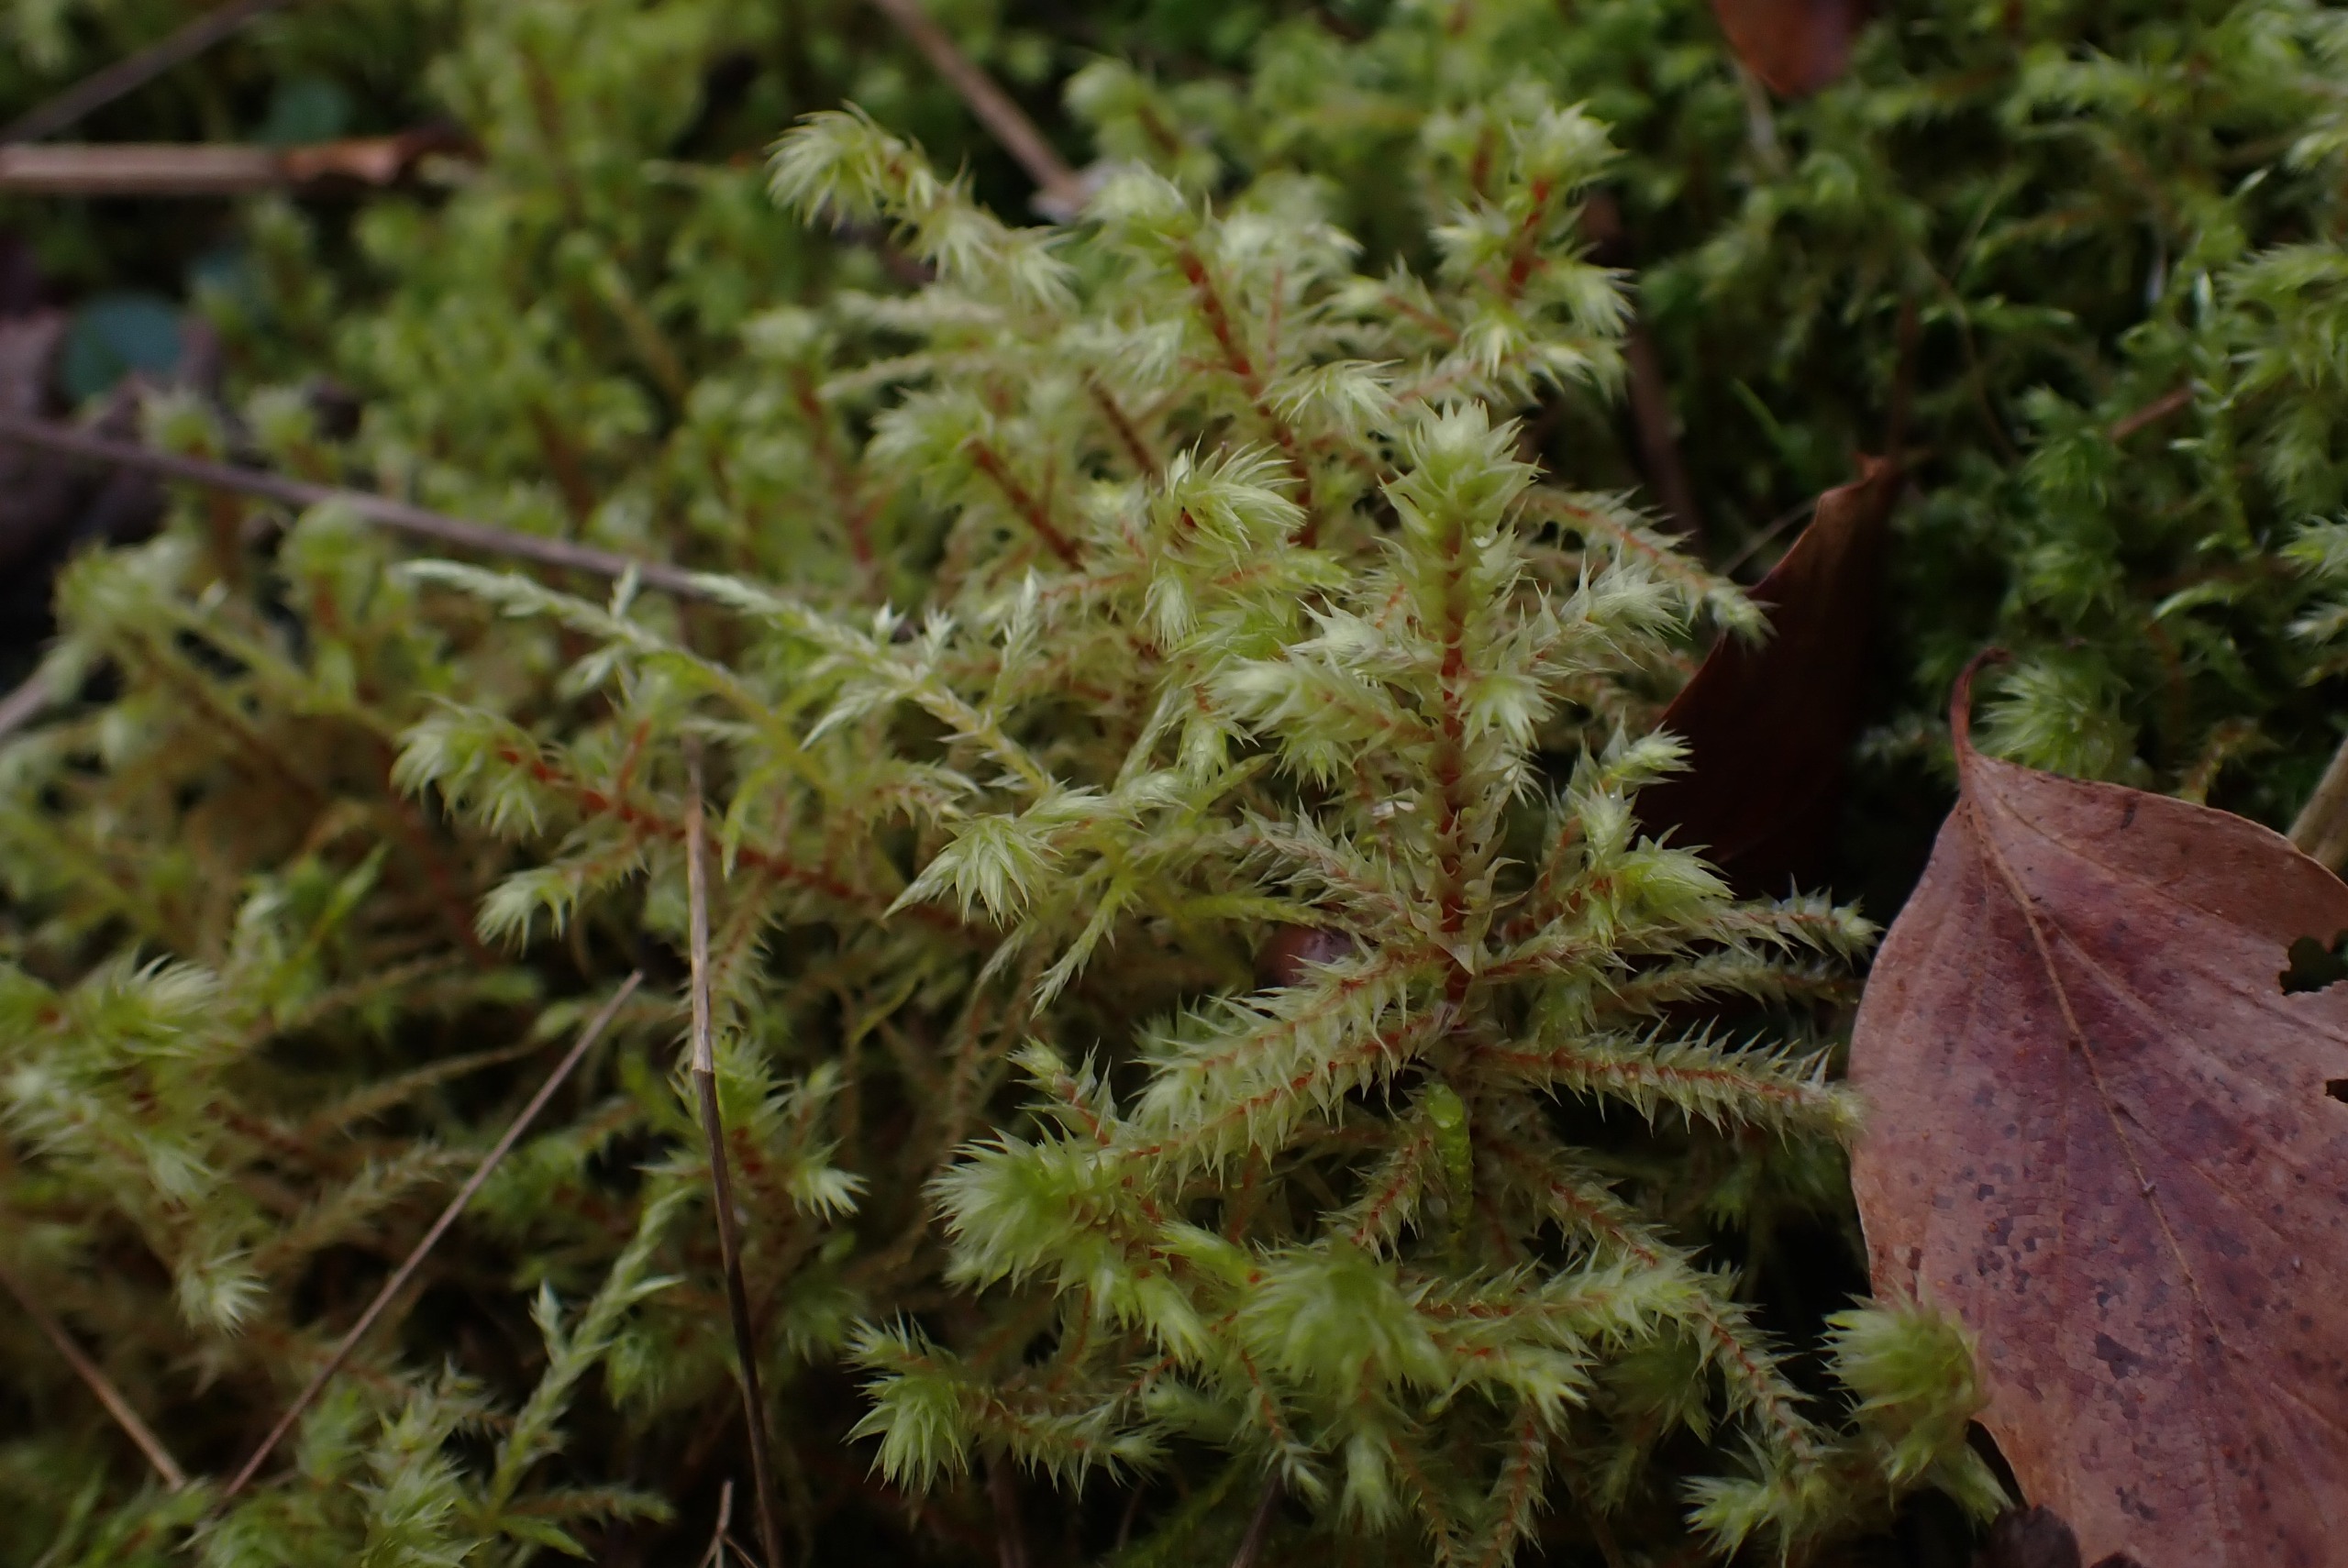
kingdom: Plantae
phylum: Bryophyta
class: Bryopsida
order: Hypnales
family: Hylocomiaceae
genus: Hylocomiadelphus
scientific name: Hylocomiadelphus triquetrus
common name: Stor kransemos
